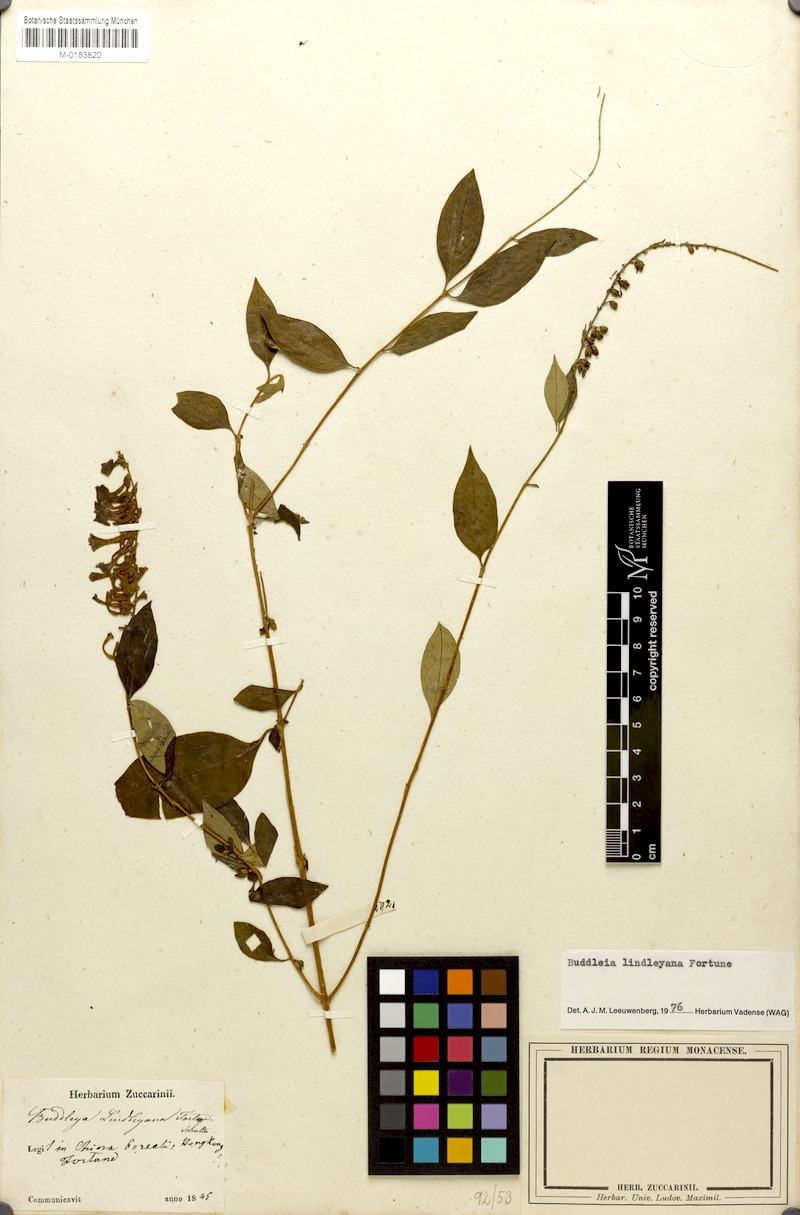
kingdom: Plantae
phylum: Tracheophyta
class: Magnoliopsida
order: Lamiales
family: Scrophulariaceae
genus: Buddleja
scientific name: Buddleja lindleyana
